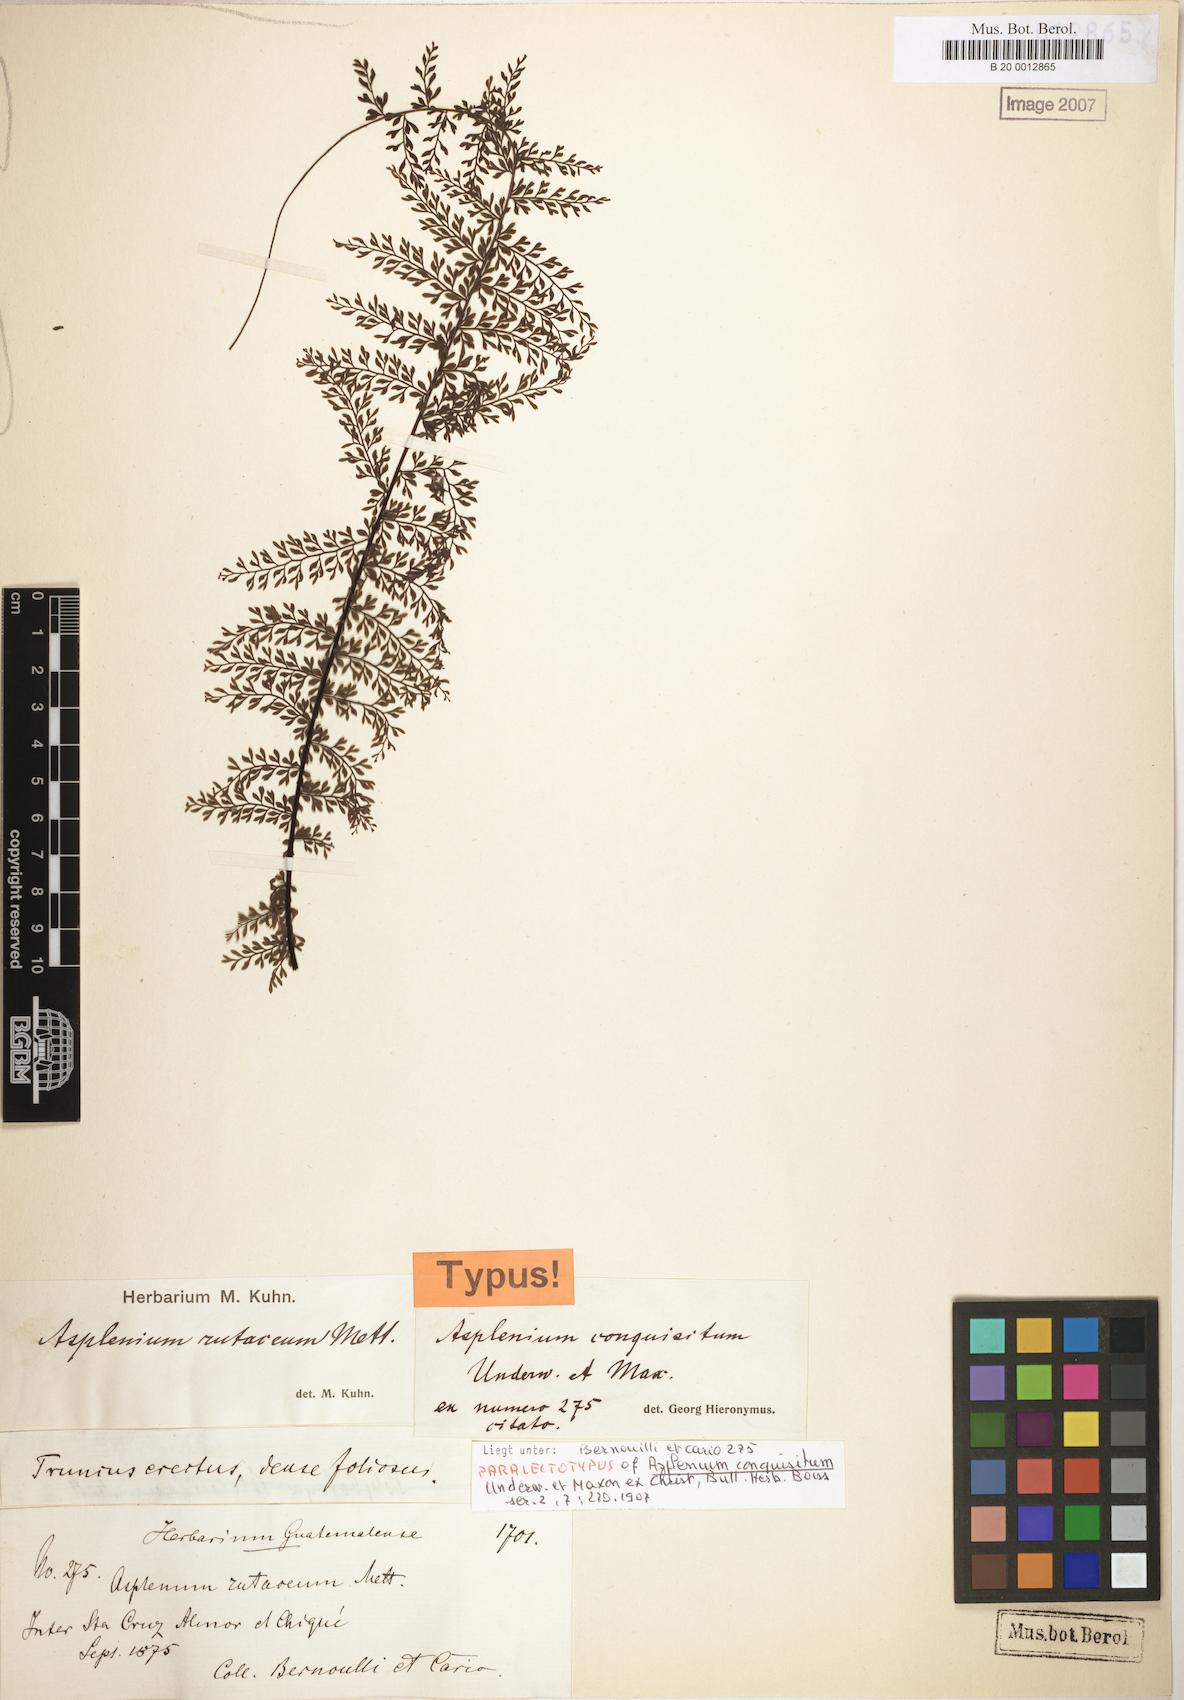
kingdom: Plantae
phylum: Tracheophyta
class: Polypodiopsida
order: Polypodiales
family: Aspleniaceae
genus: Asplenium
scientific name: Asplenium rutaceum
